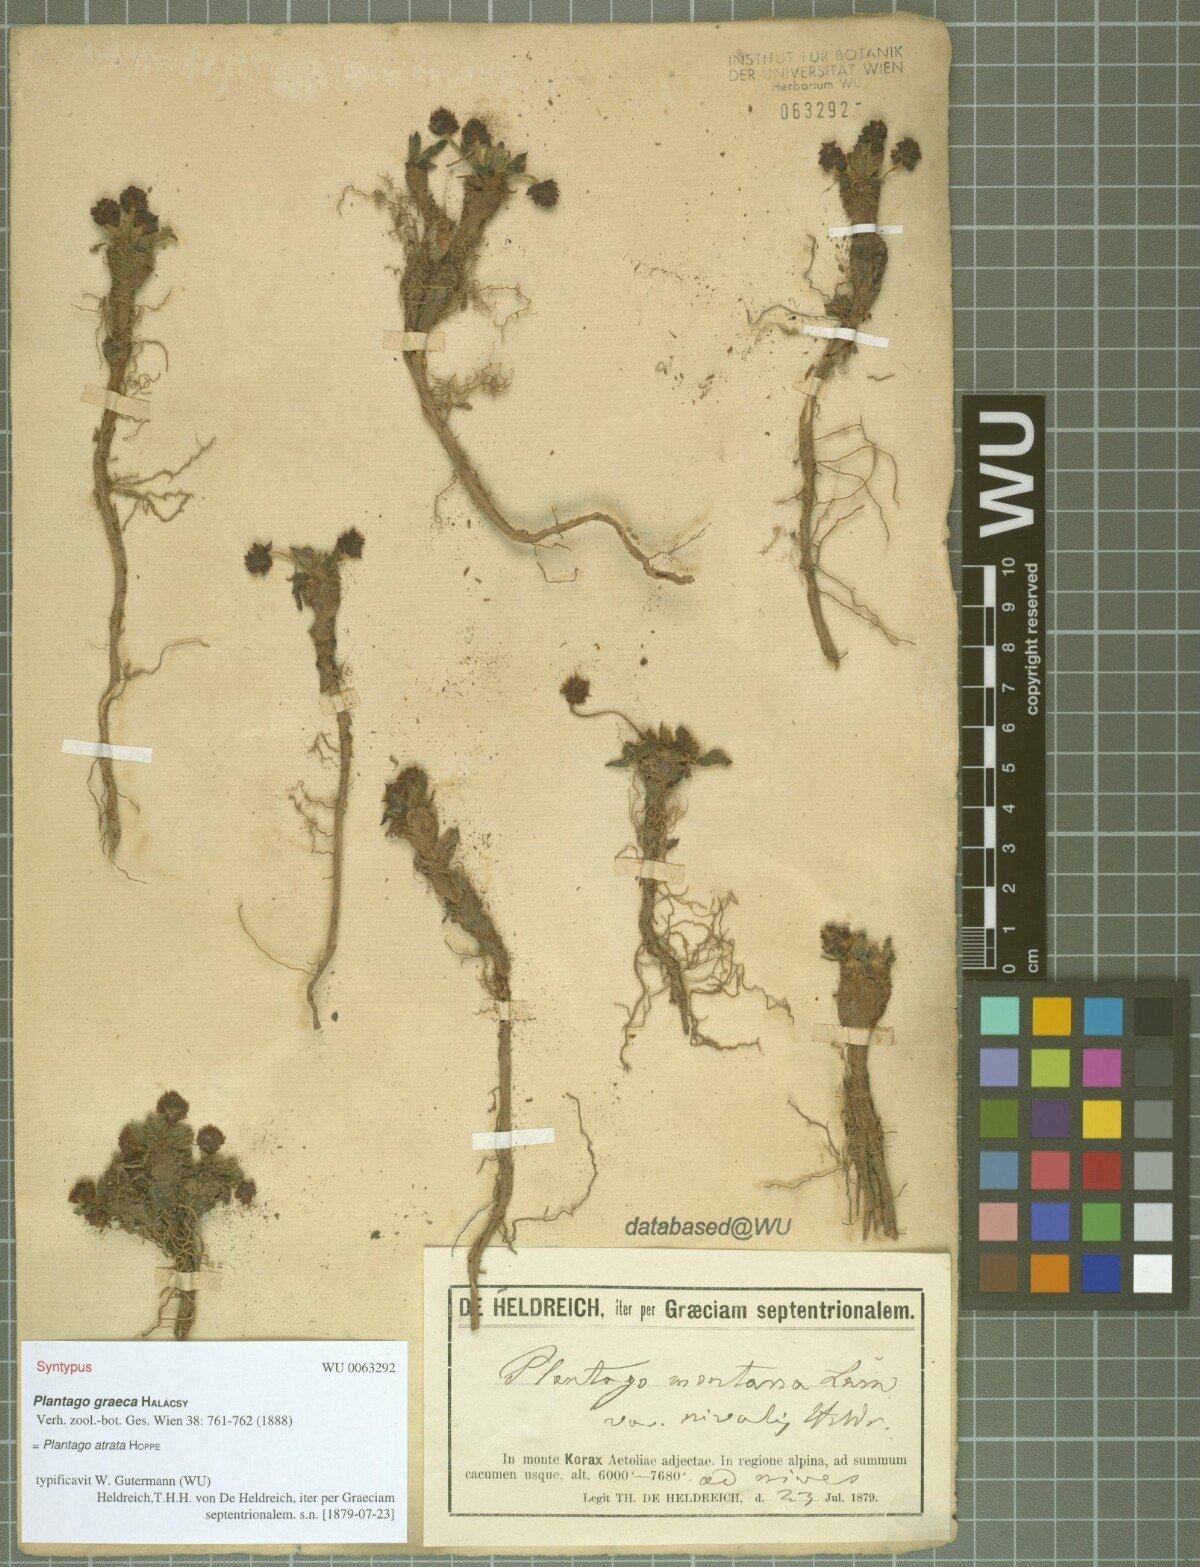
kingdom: Plantae
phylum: Tracheophyta
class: Magnoliopsida
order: Lamiales
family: Plantaginaceae
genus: Plantago
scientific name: Plantago atrata
